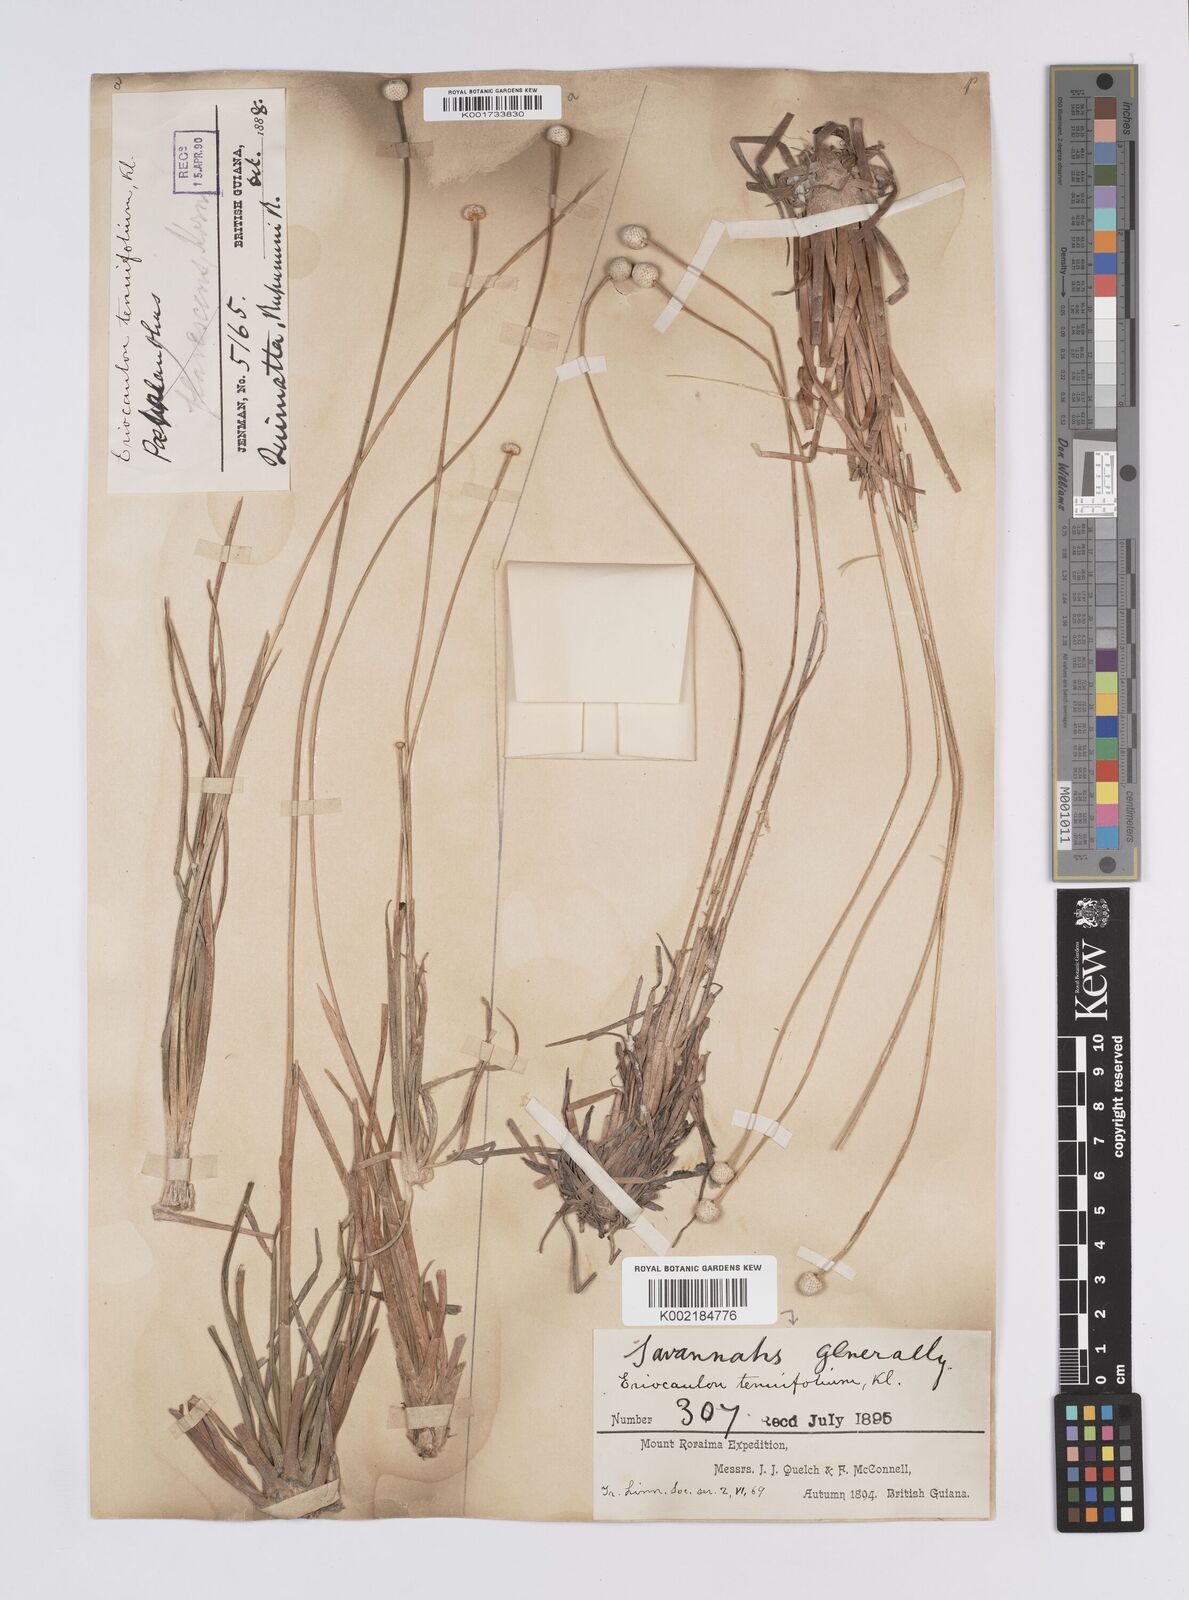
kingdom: Plantae
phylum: Tracheophyta
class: Liliopsida
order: Poales
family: Eriocaulaceae
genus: Eriocaulon
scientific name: Eriocaulon tenuifolium
